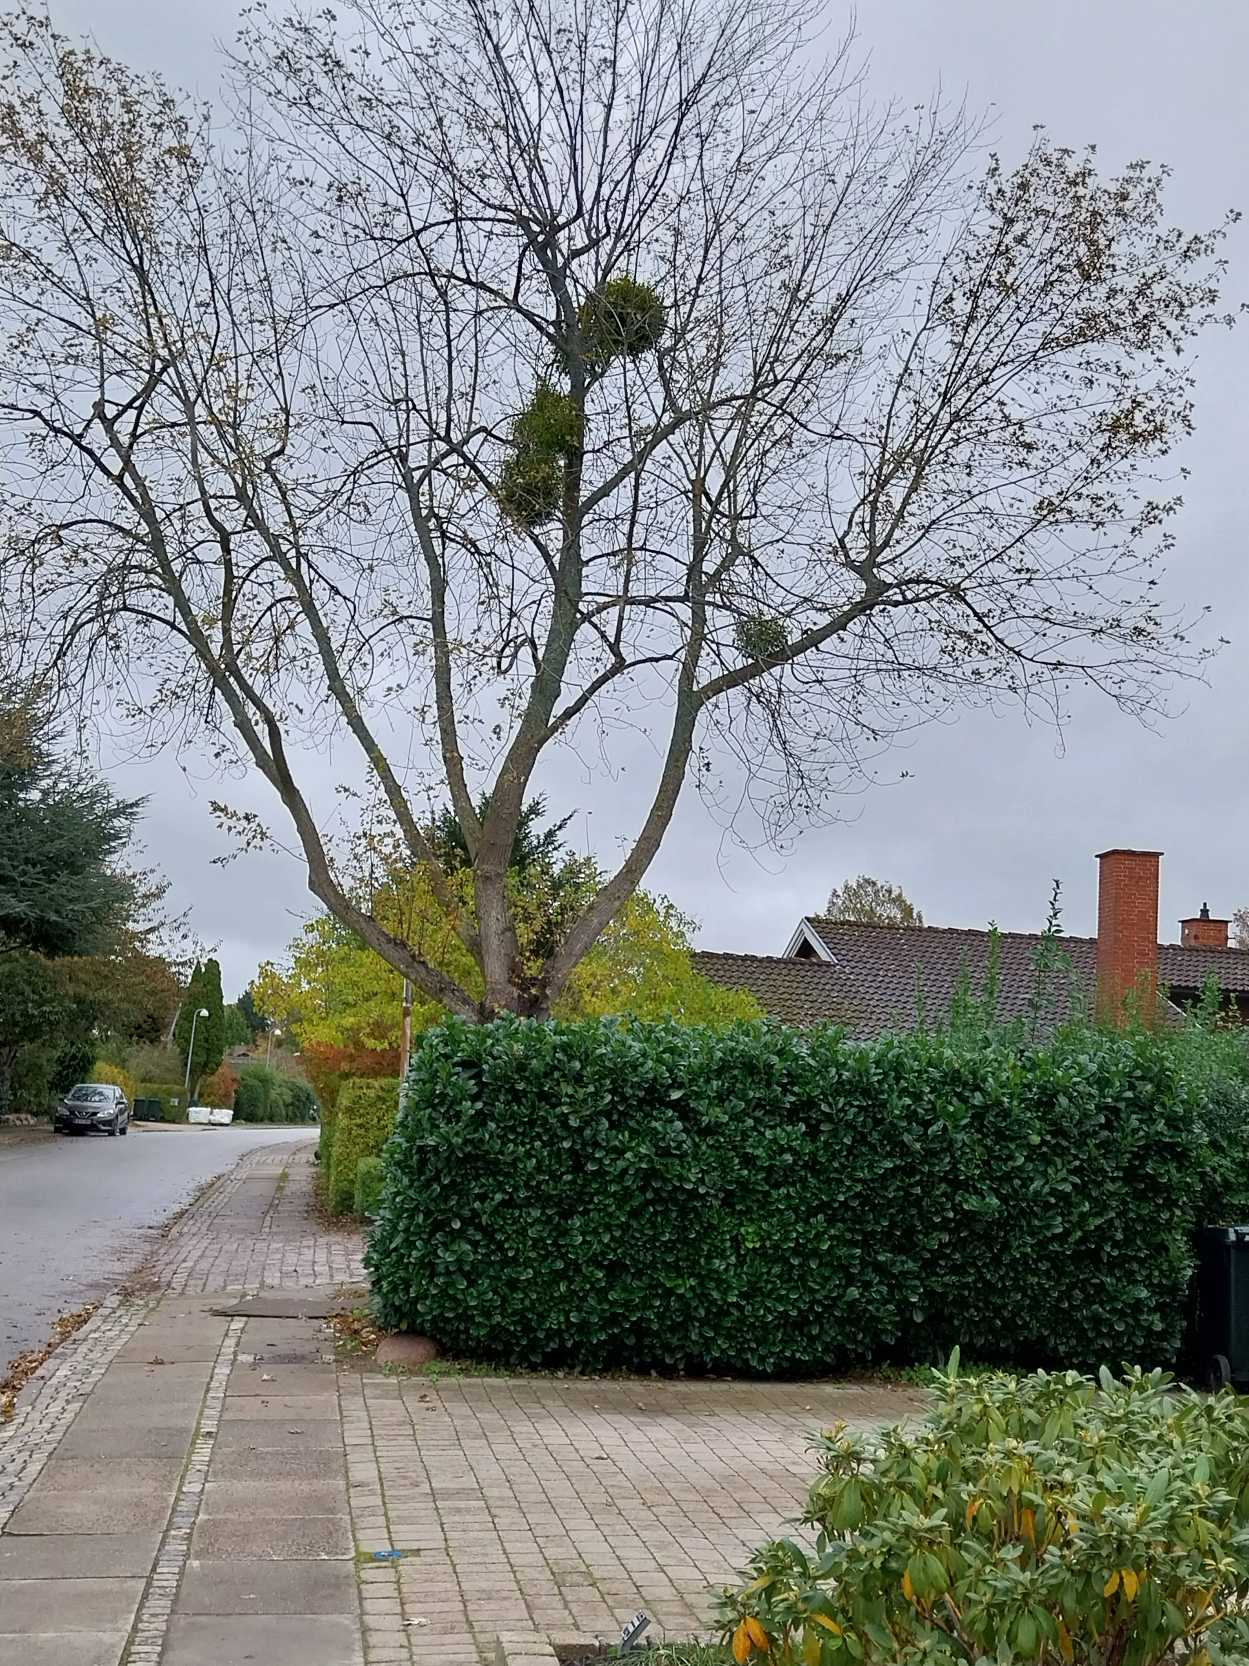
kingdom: Plantae
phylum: Tracheophyta
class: Magnoliopsida
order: Santalales
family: Viscaceae
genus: Viscum
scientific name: Viscum album
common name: Mistelten
